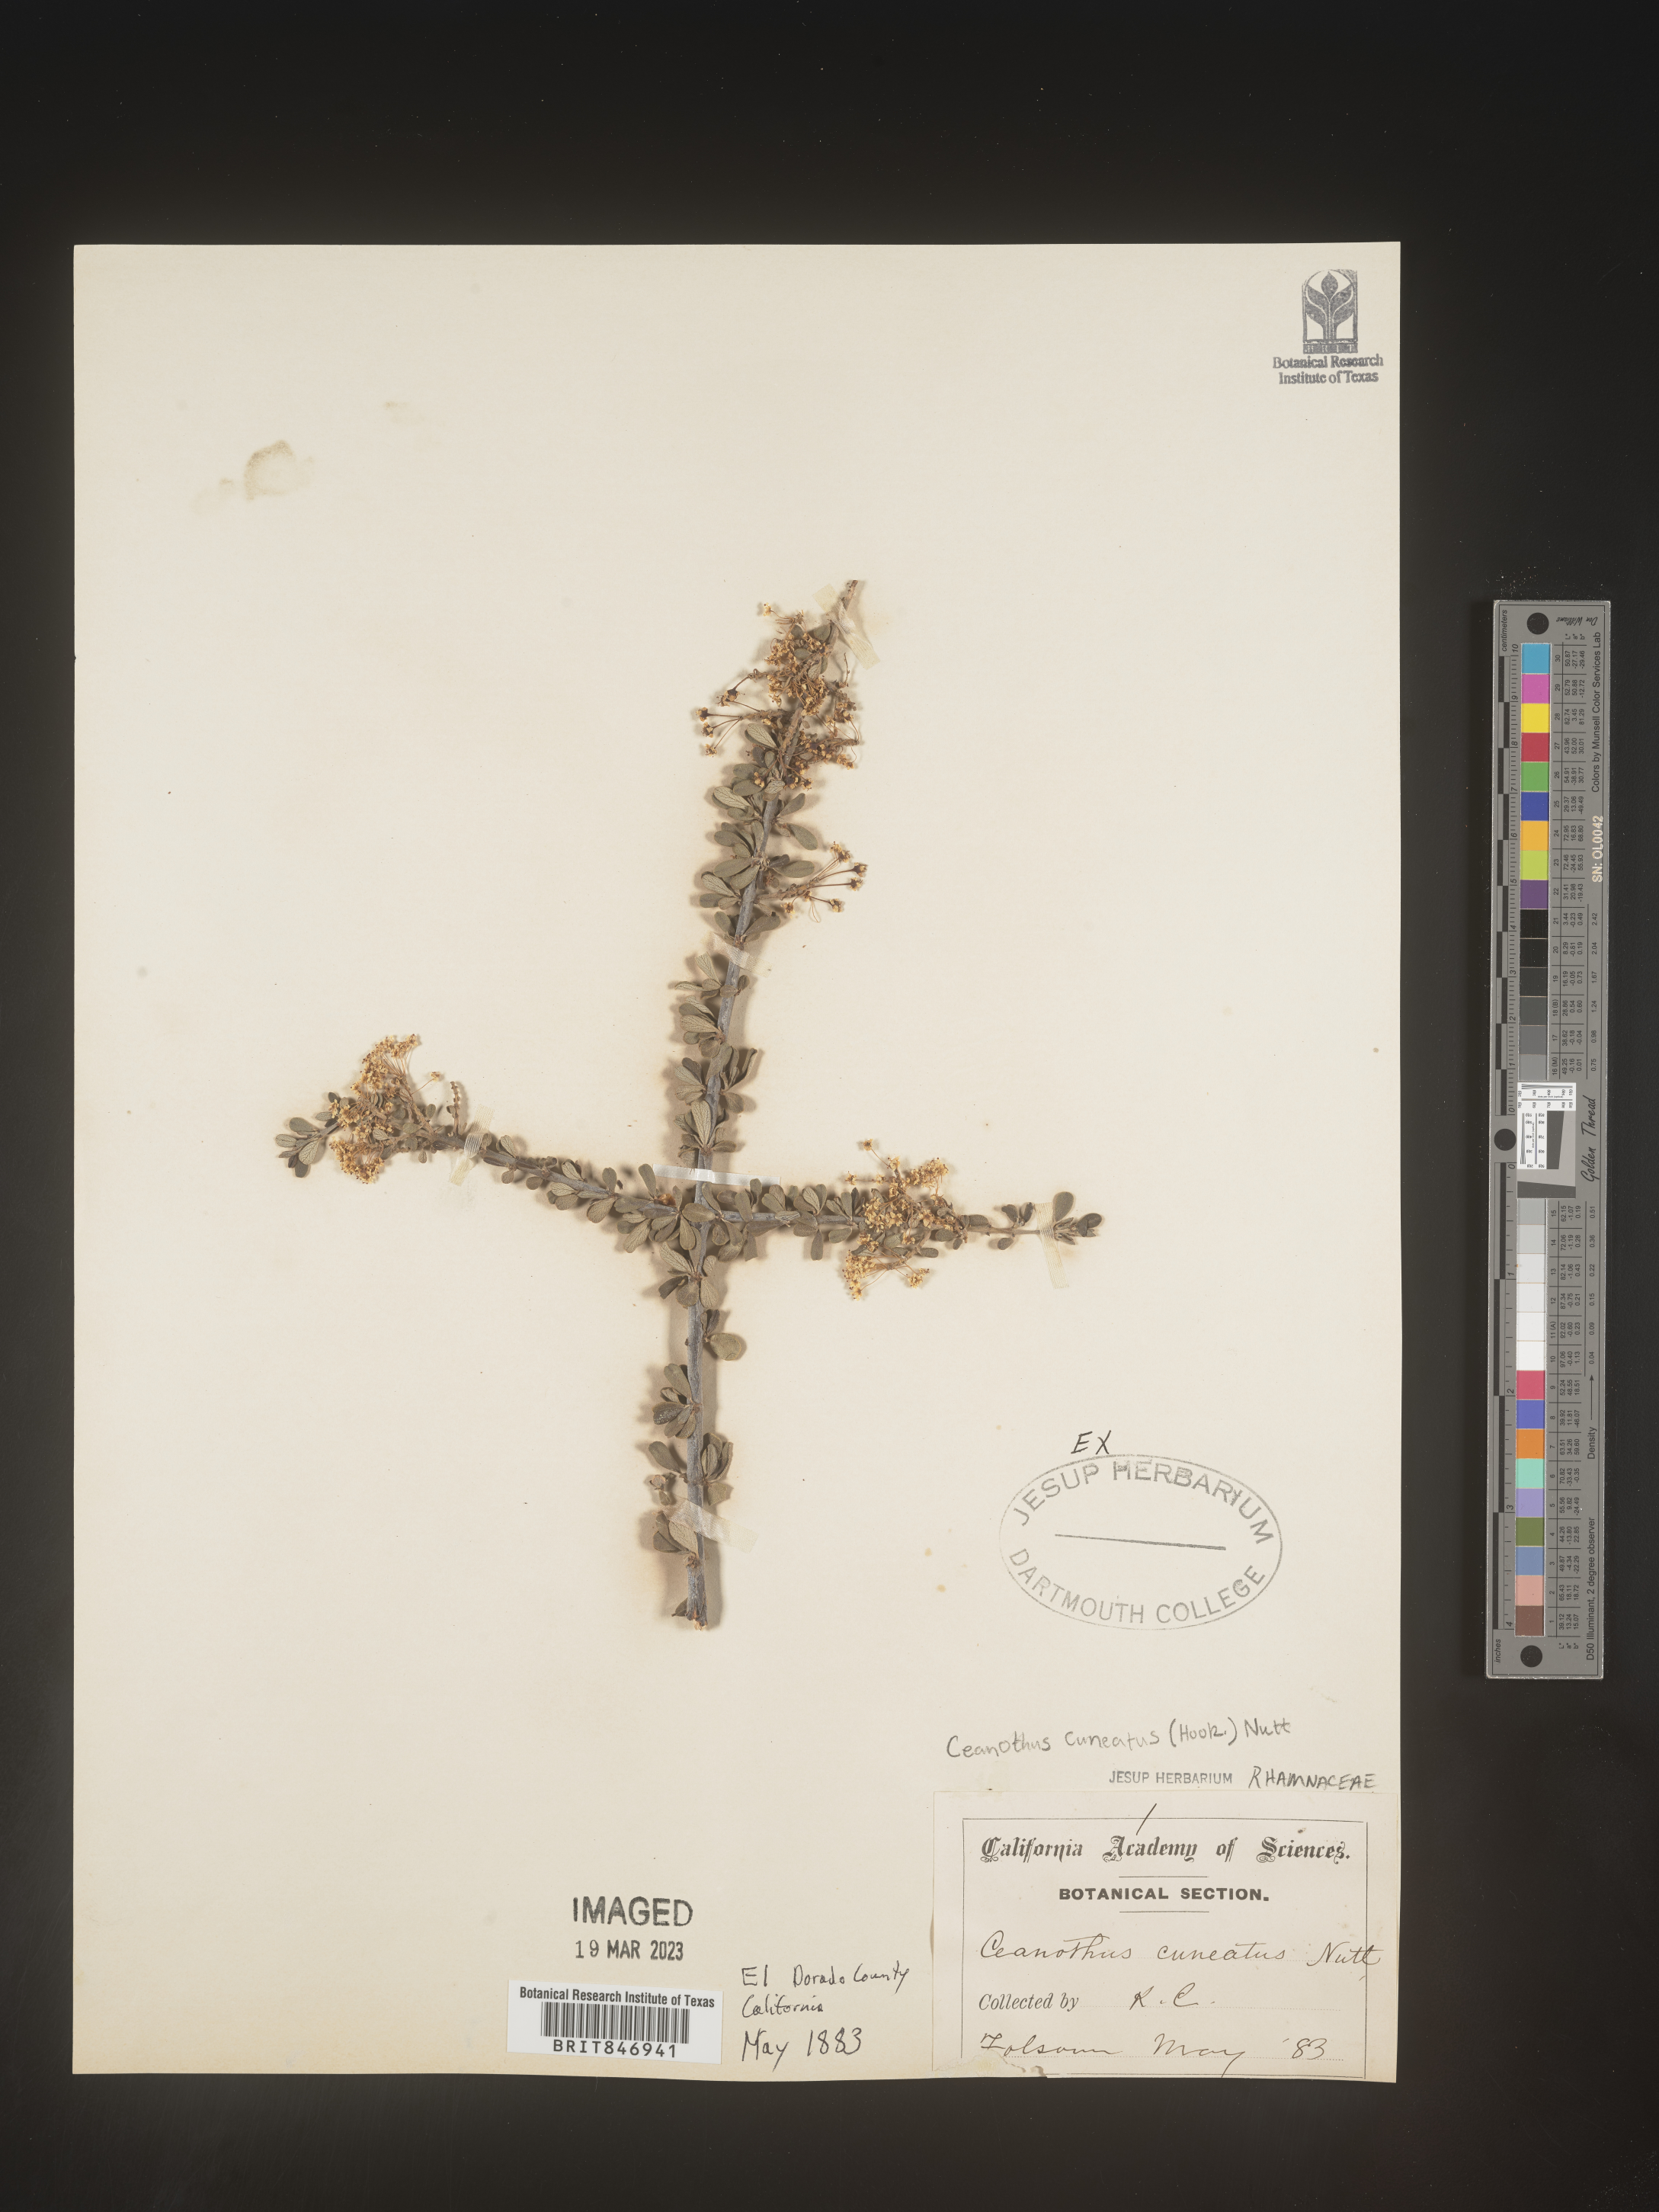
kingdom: Plantae
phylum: Tracheophyta
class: Magnoliopsida
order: Rosales
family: Rhamnaceae
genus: Ceanothus
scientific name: Ceanothus cuneatus
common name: Cuneate ceanothus
